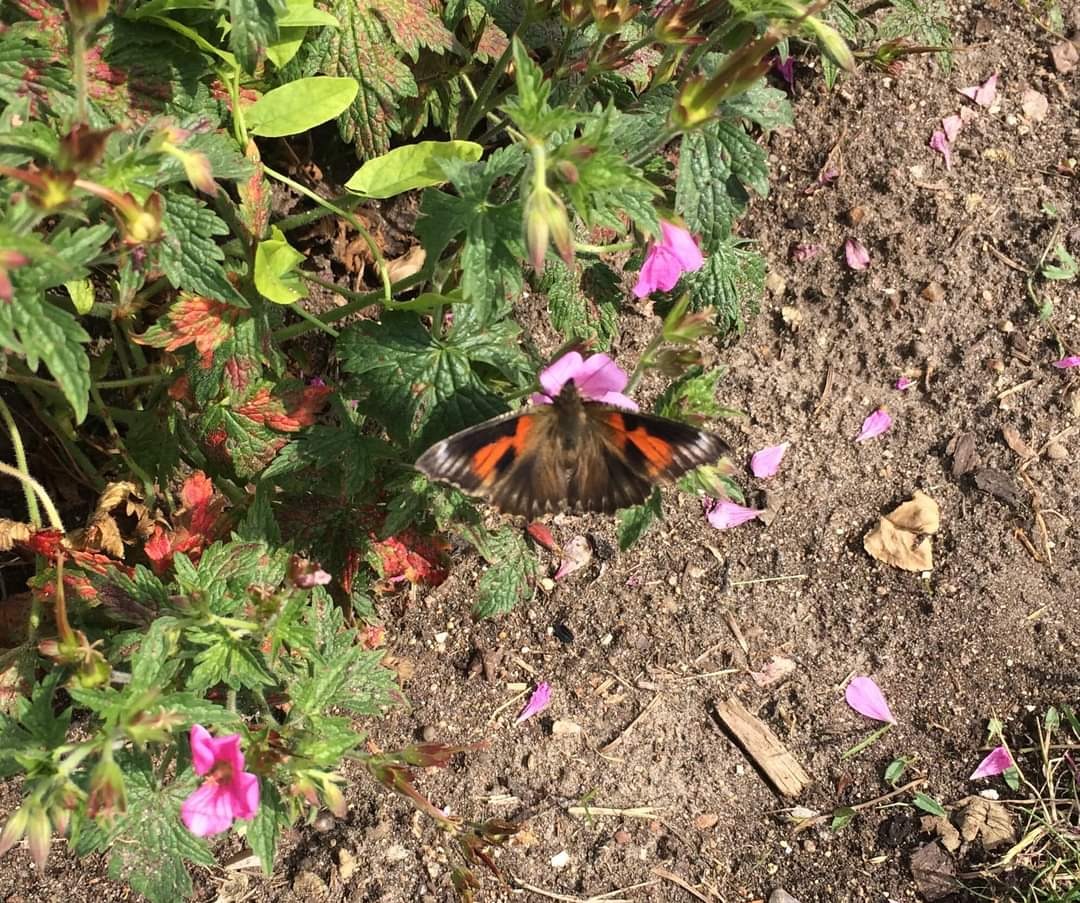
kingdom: Animalia
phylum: Arthropoda
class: Insecta
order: Lepidoptera
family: Nymphalidae
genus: Aglais
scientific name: Aglais urticae
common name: Nældens takvinge
